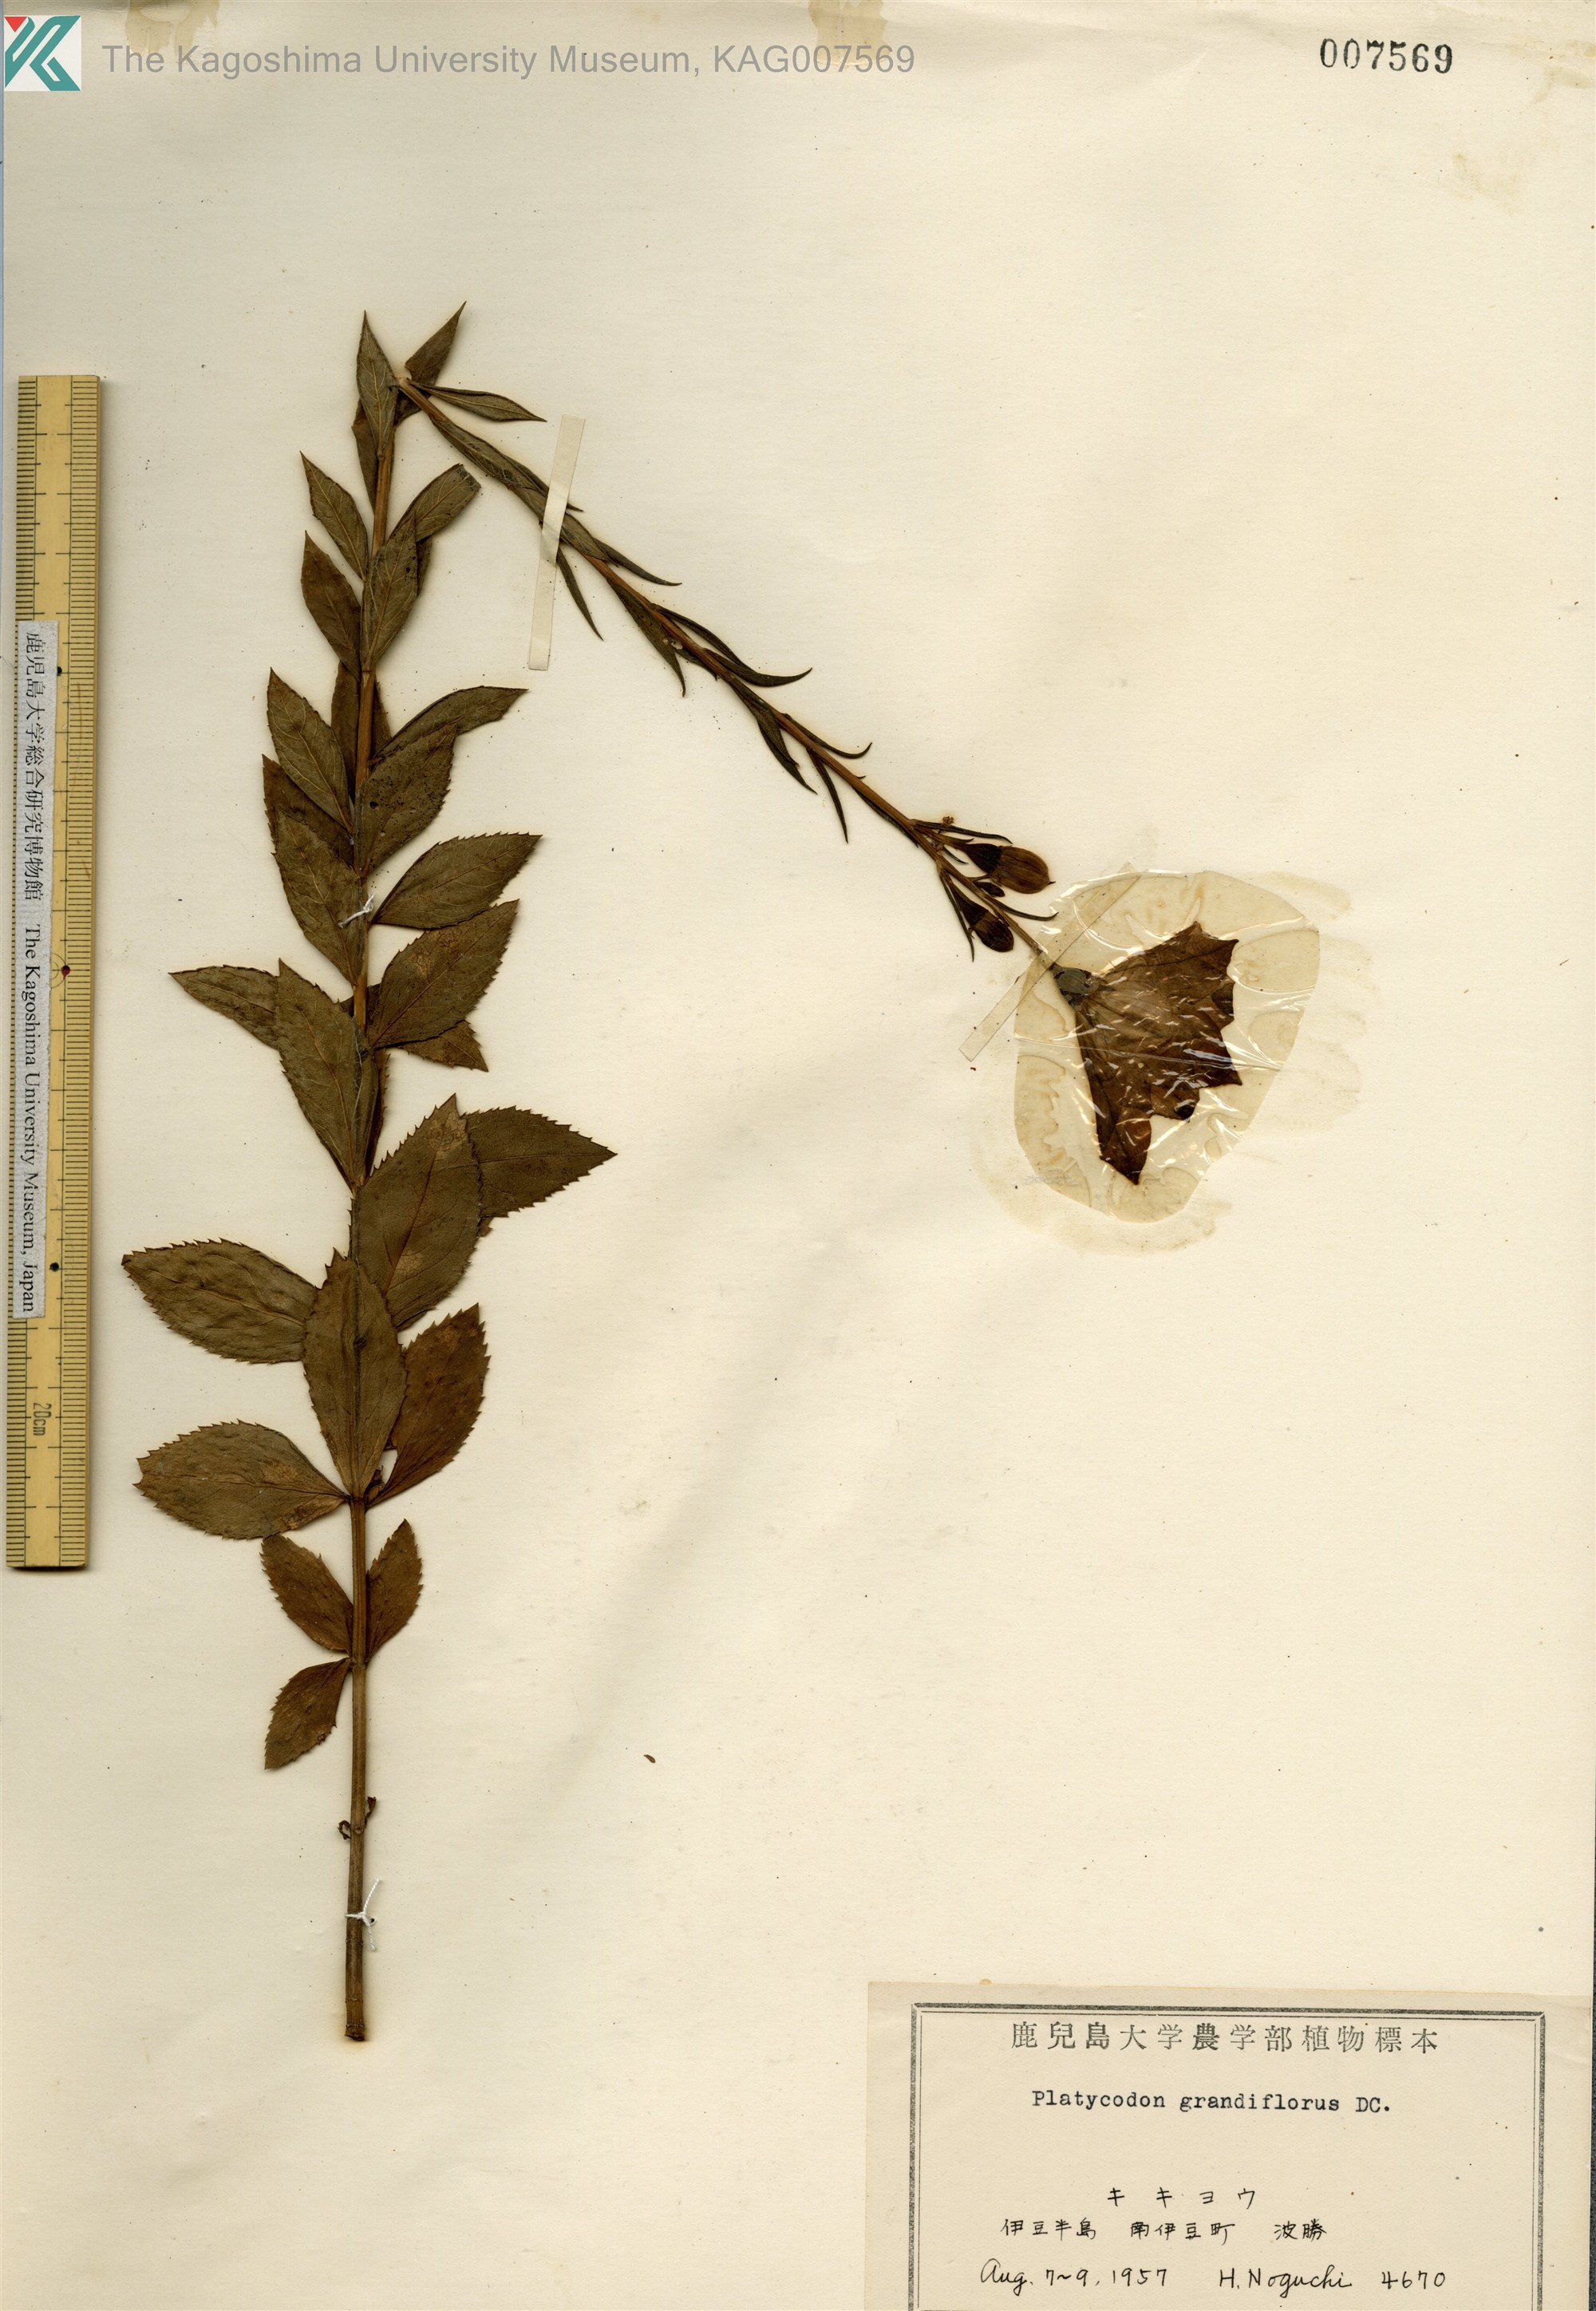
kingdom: Plantae
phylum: Tracheophyta
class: Magnoliopsida
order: Asterales
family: Campanulaceae
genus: Platycodon
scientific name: Platycodon grandiflorus
